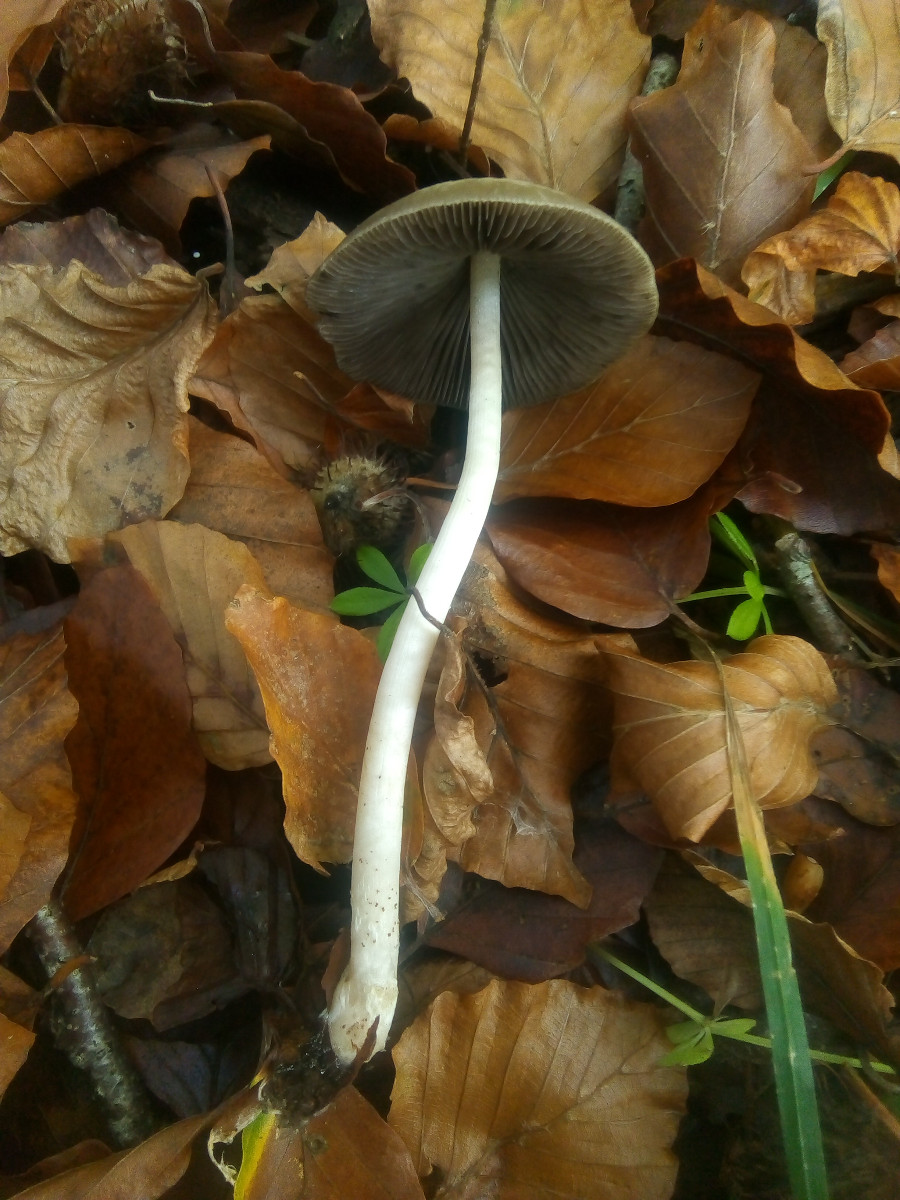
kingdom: Fungi
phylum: Basidiomycota
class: Agaricomycetes
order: Agaricales
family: Psathyrellaceae
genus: Psathyrella
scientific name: Psathyrella fusca
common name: gråbladet mørkhat
